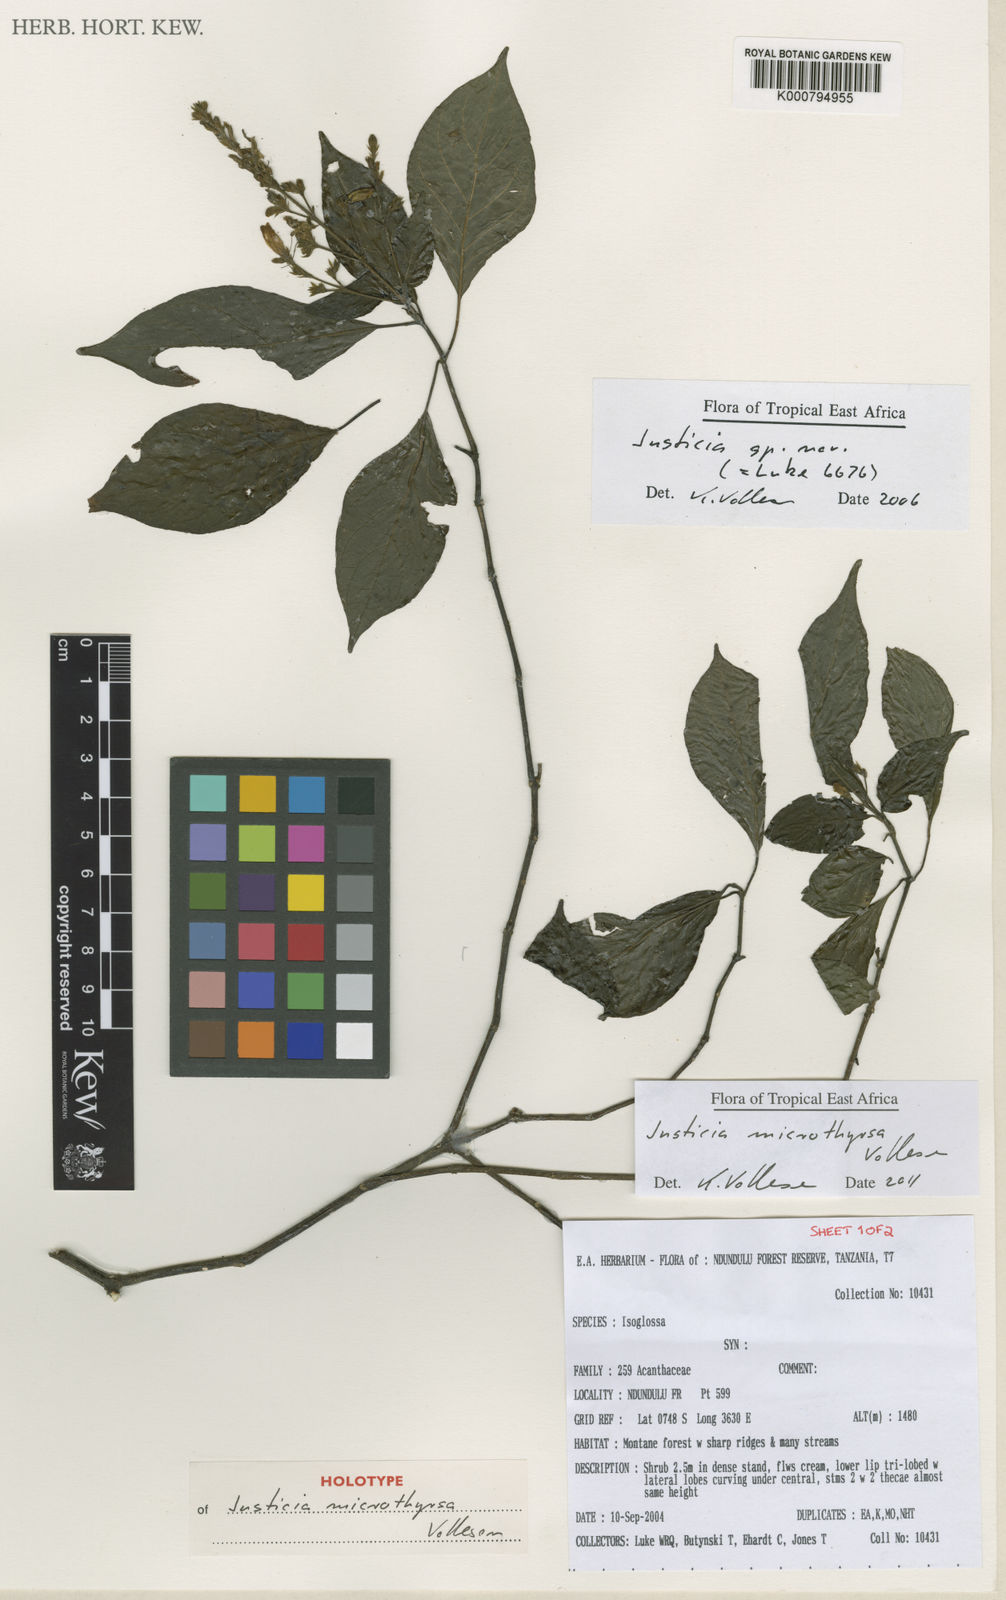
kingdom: Plantae
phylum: Tracheophyta
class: Magnoliopsida
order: Lamiales
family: Acanthaceae
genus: Justicia
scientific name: Justicia microthyrsa
